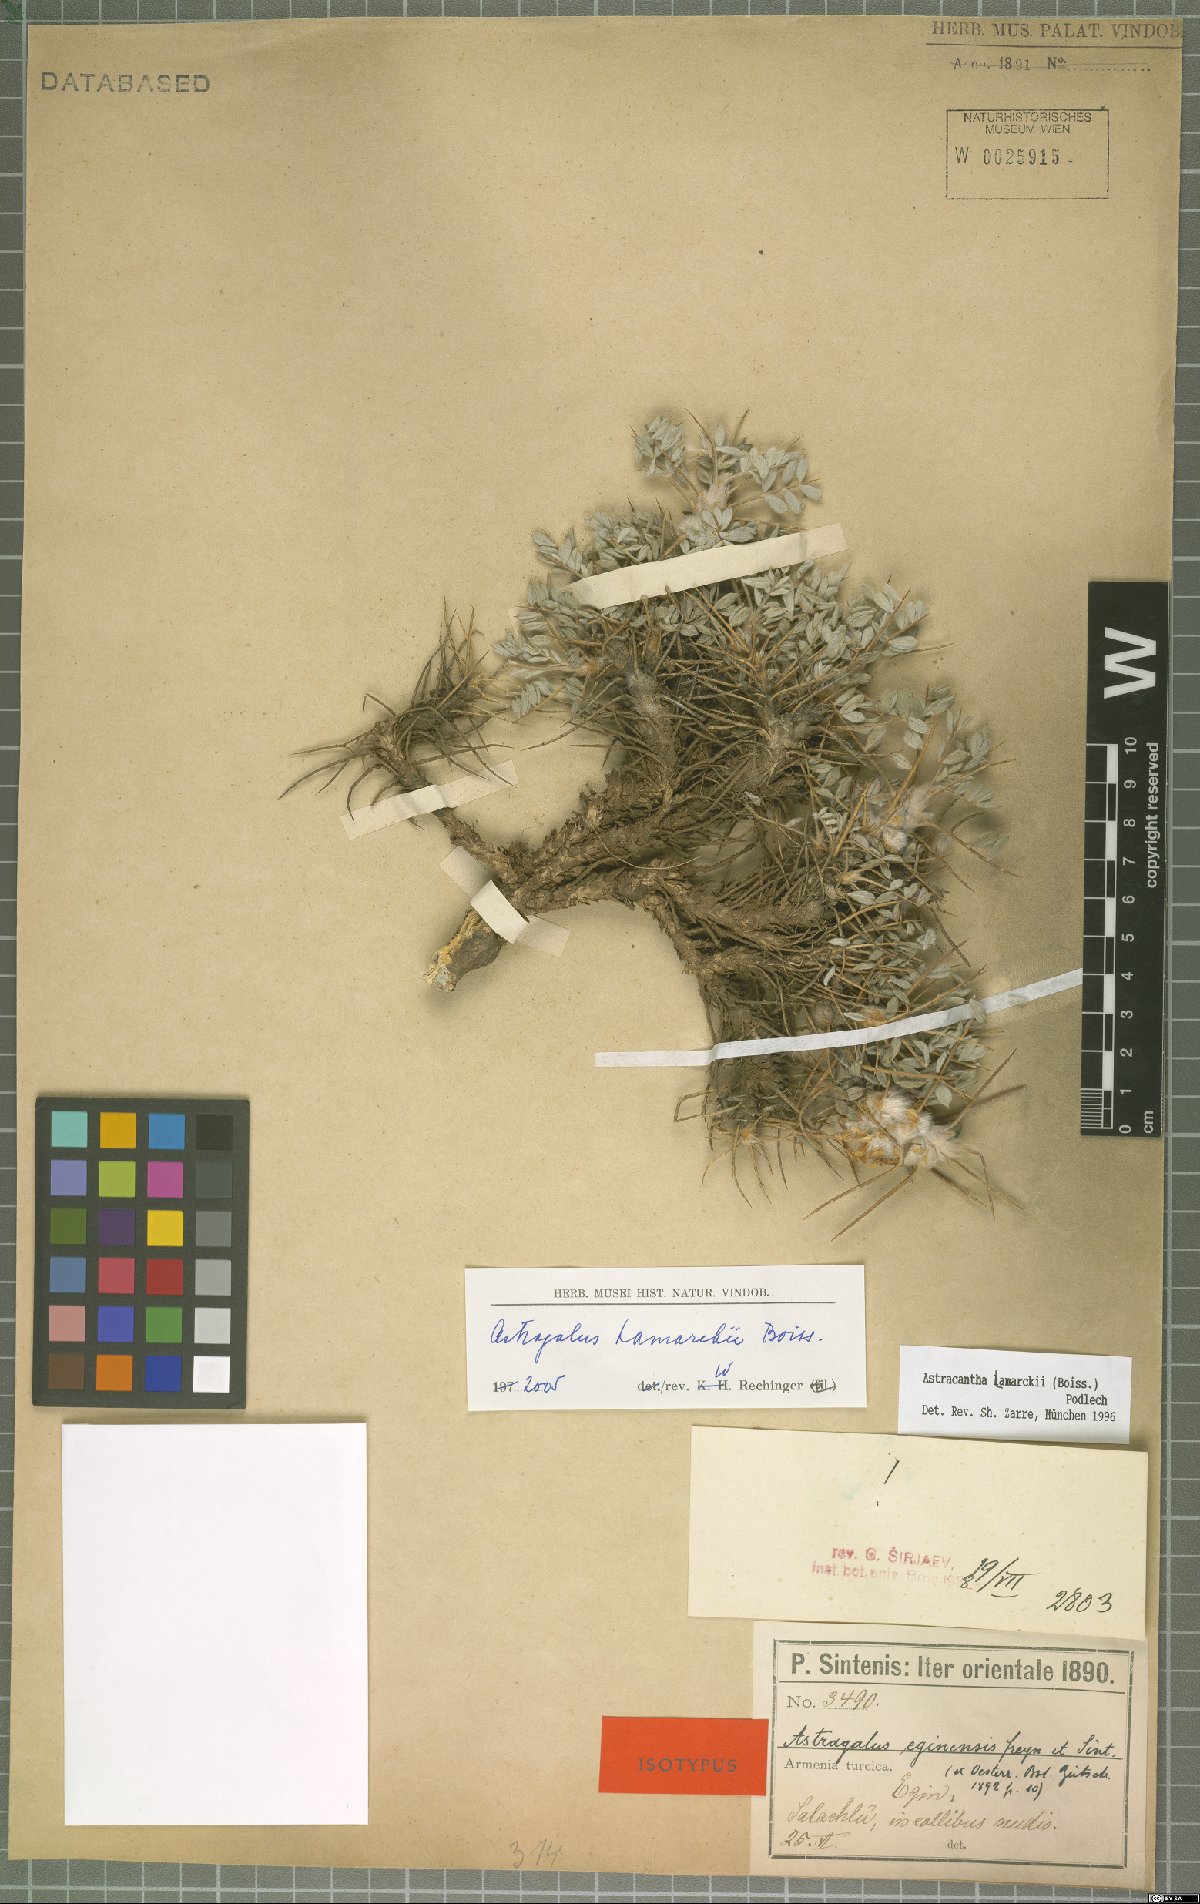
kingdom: Plantae
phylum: Tracheophyta
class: Magnoliopsida
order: Fabales
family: Fabaceae
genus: Astragalus
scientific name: Astragalus lamarckii
